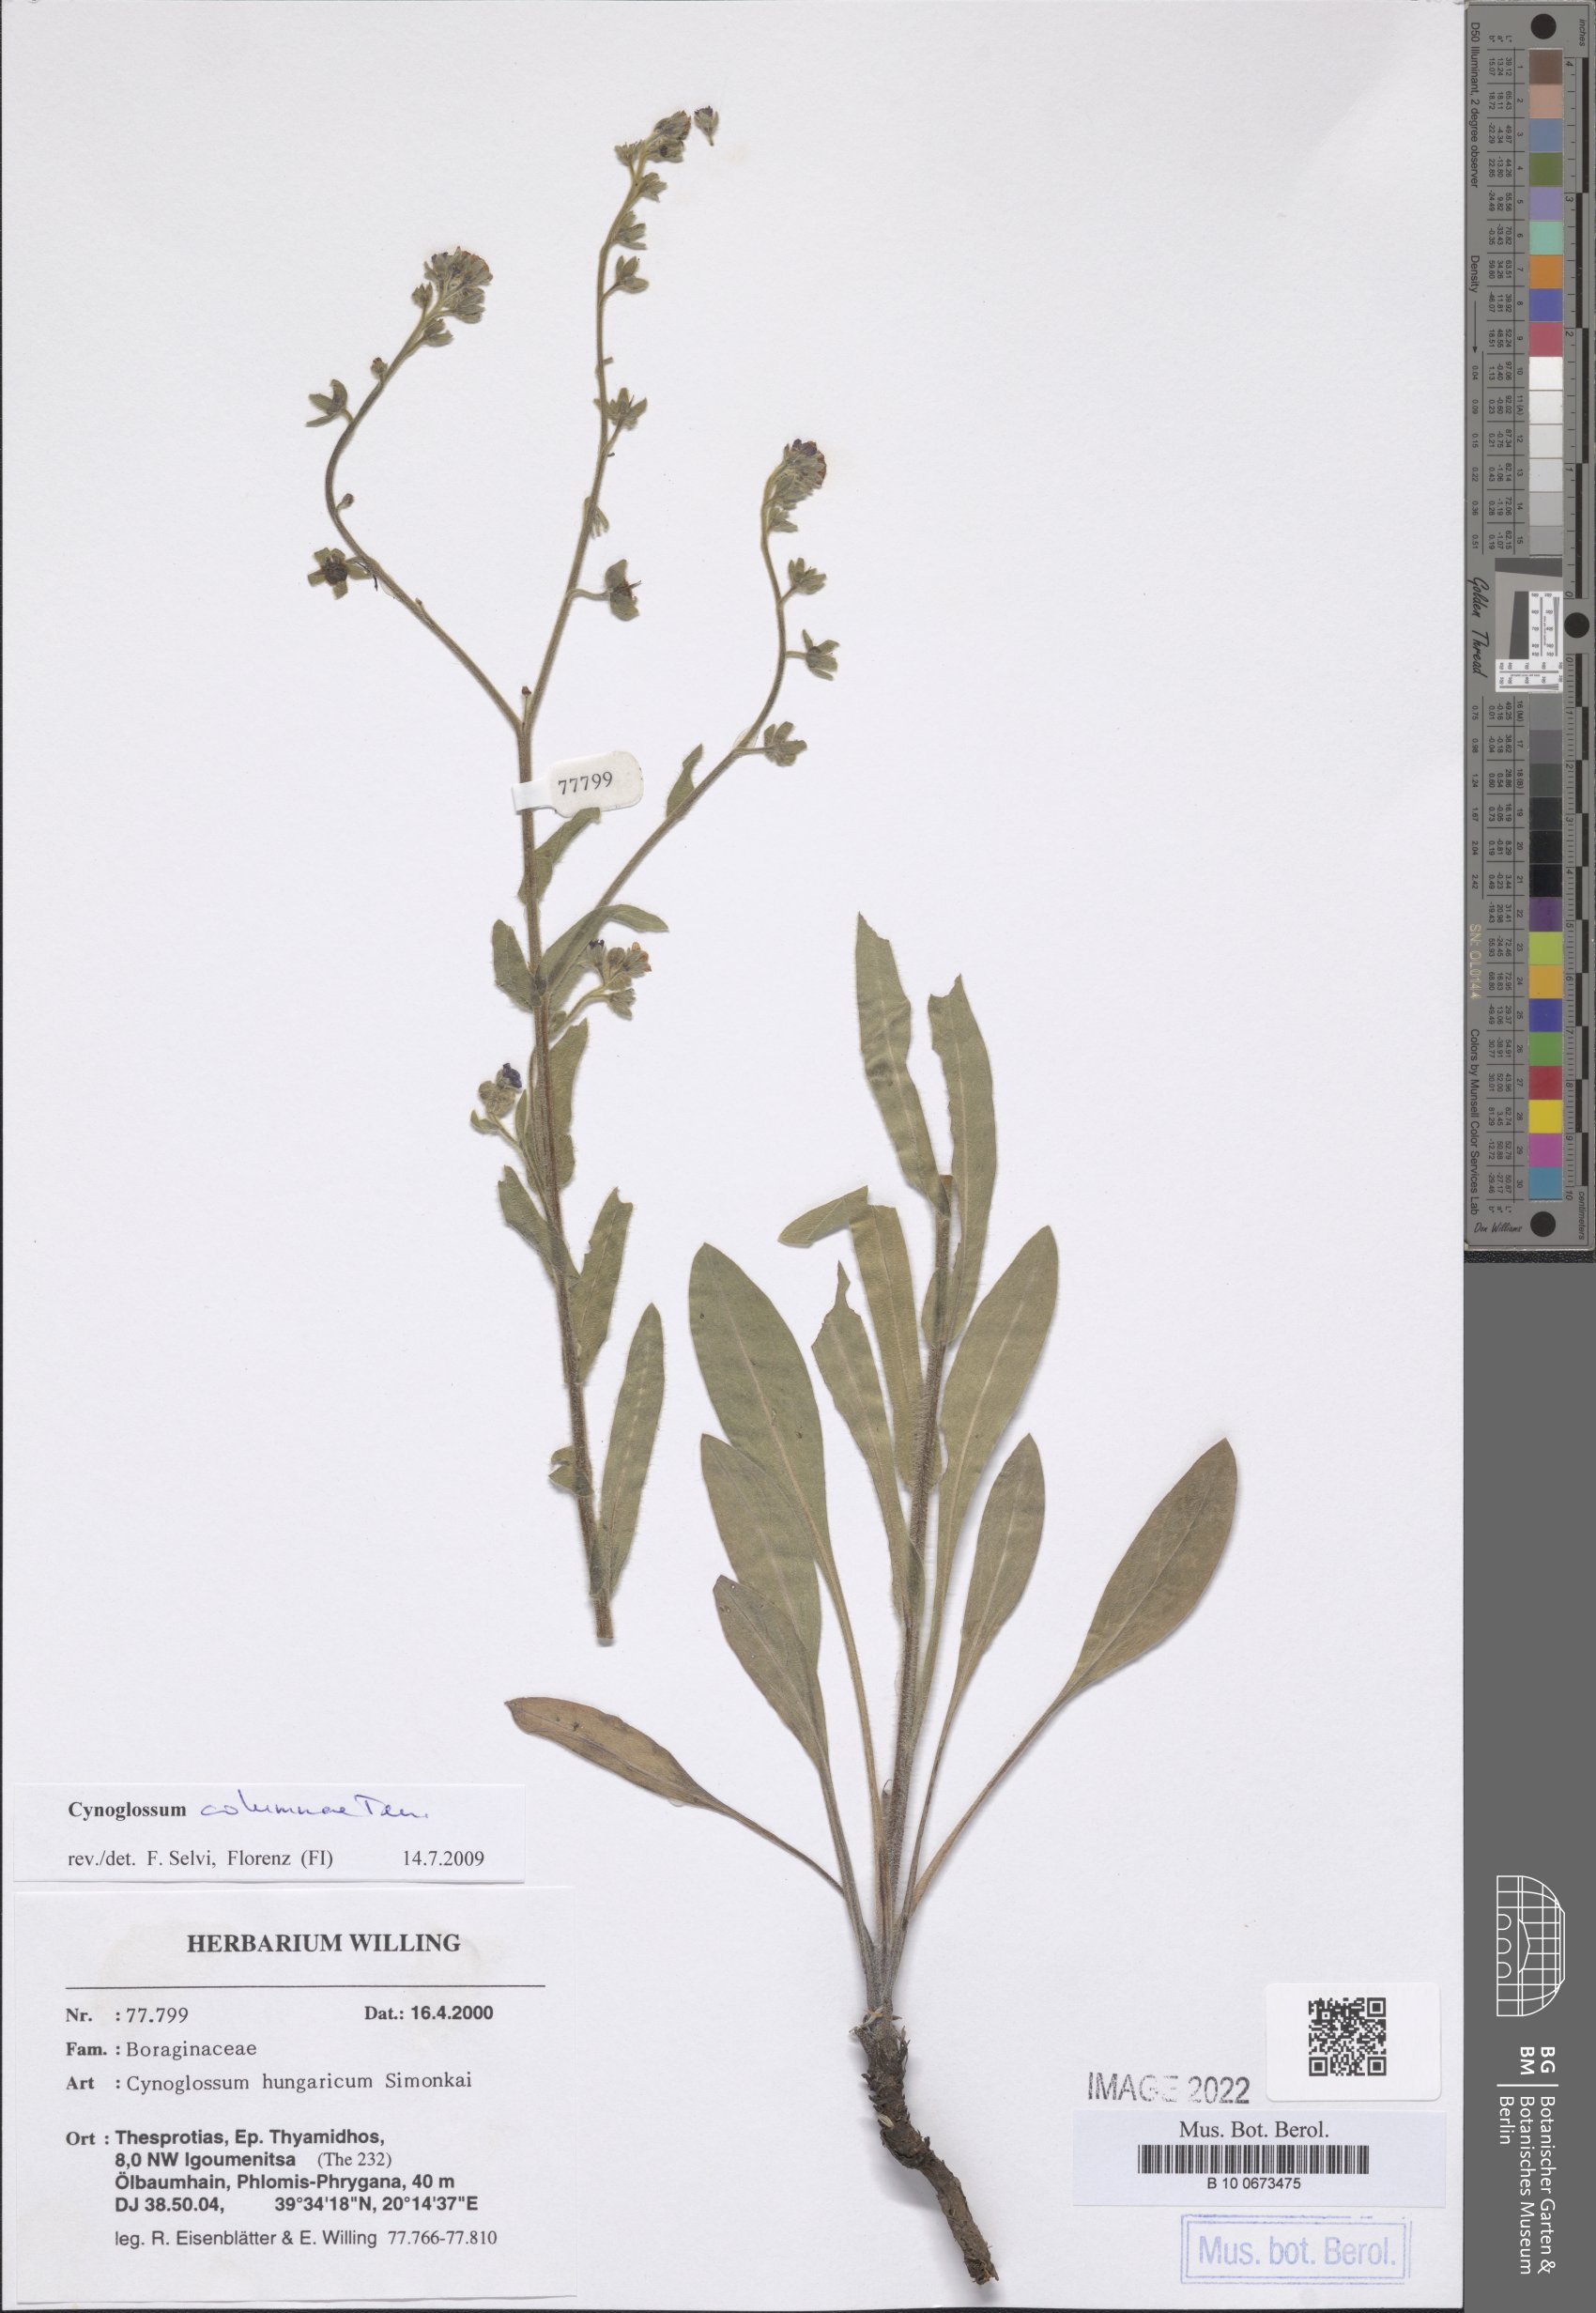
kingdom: Plantae
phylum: Tracheophyta
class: Magnoliopsida
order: Boraginales
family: Boraginaceae
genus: Rindera
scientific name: Rindera columnae
